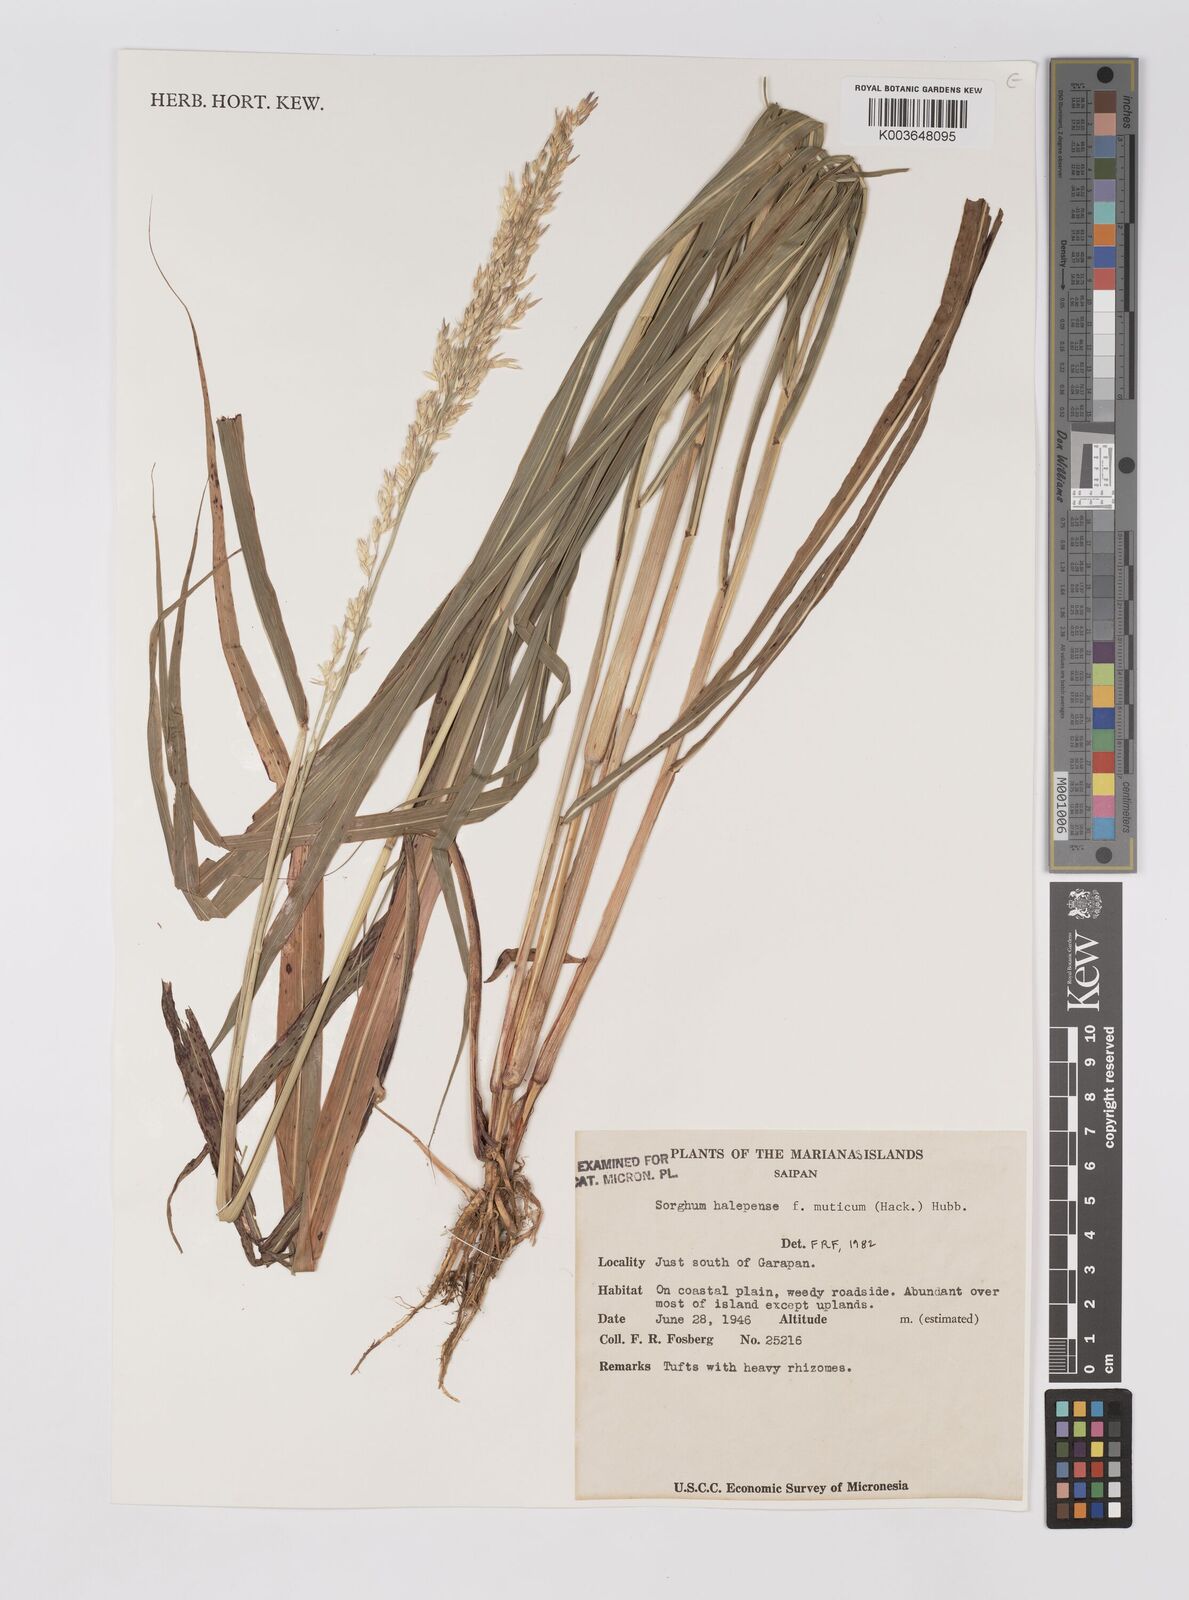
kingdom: Plantae
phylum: Tracheophyta
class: Liliopsida
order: Poales
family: Poaceae
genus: Sorghum
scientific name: Sorghum halepense
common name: Johnson-grass
